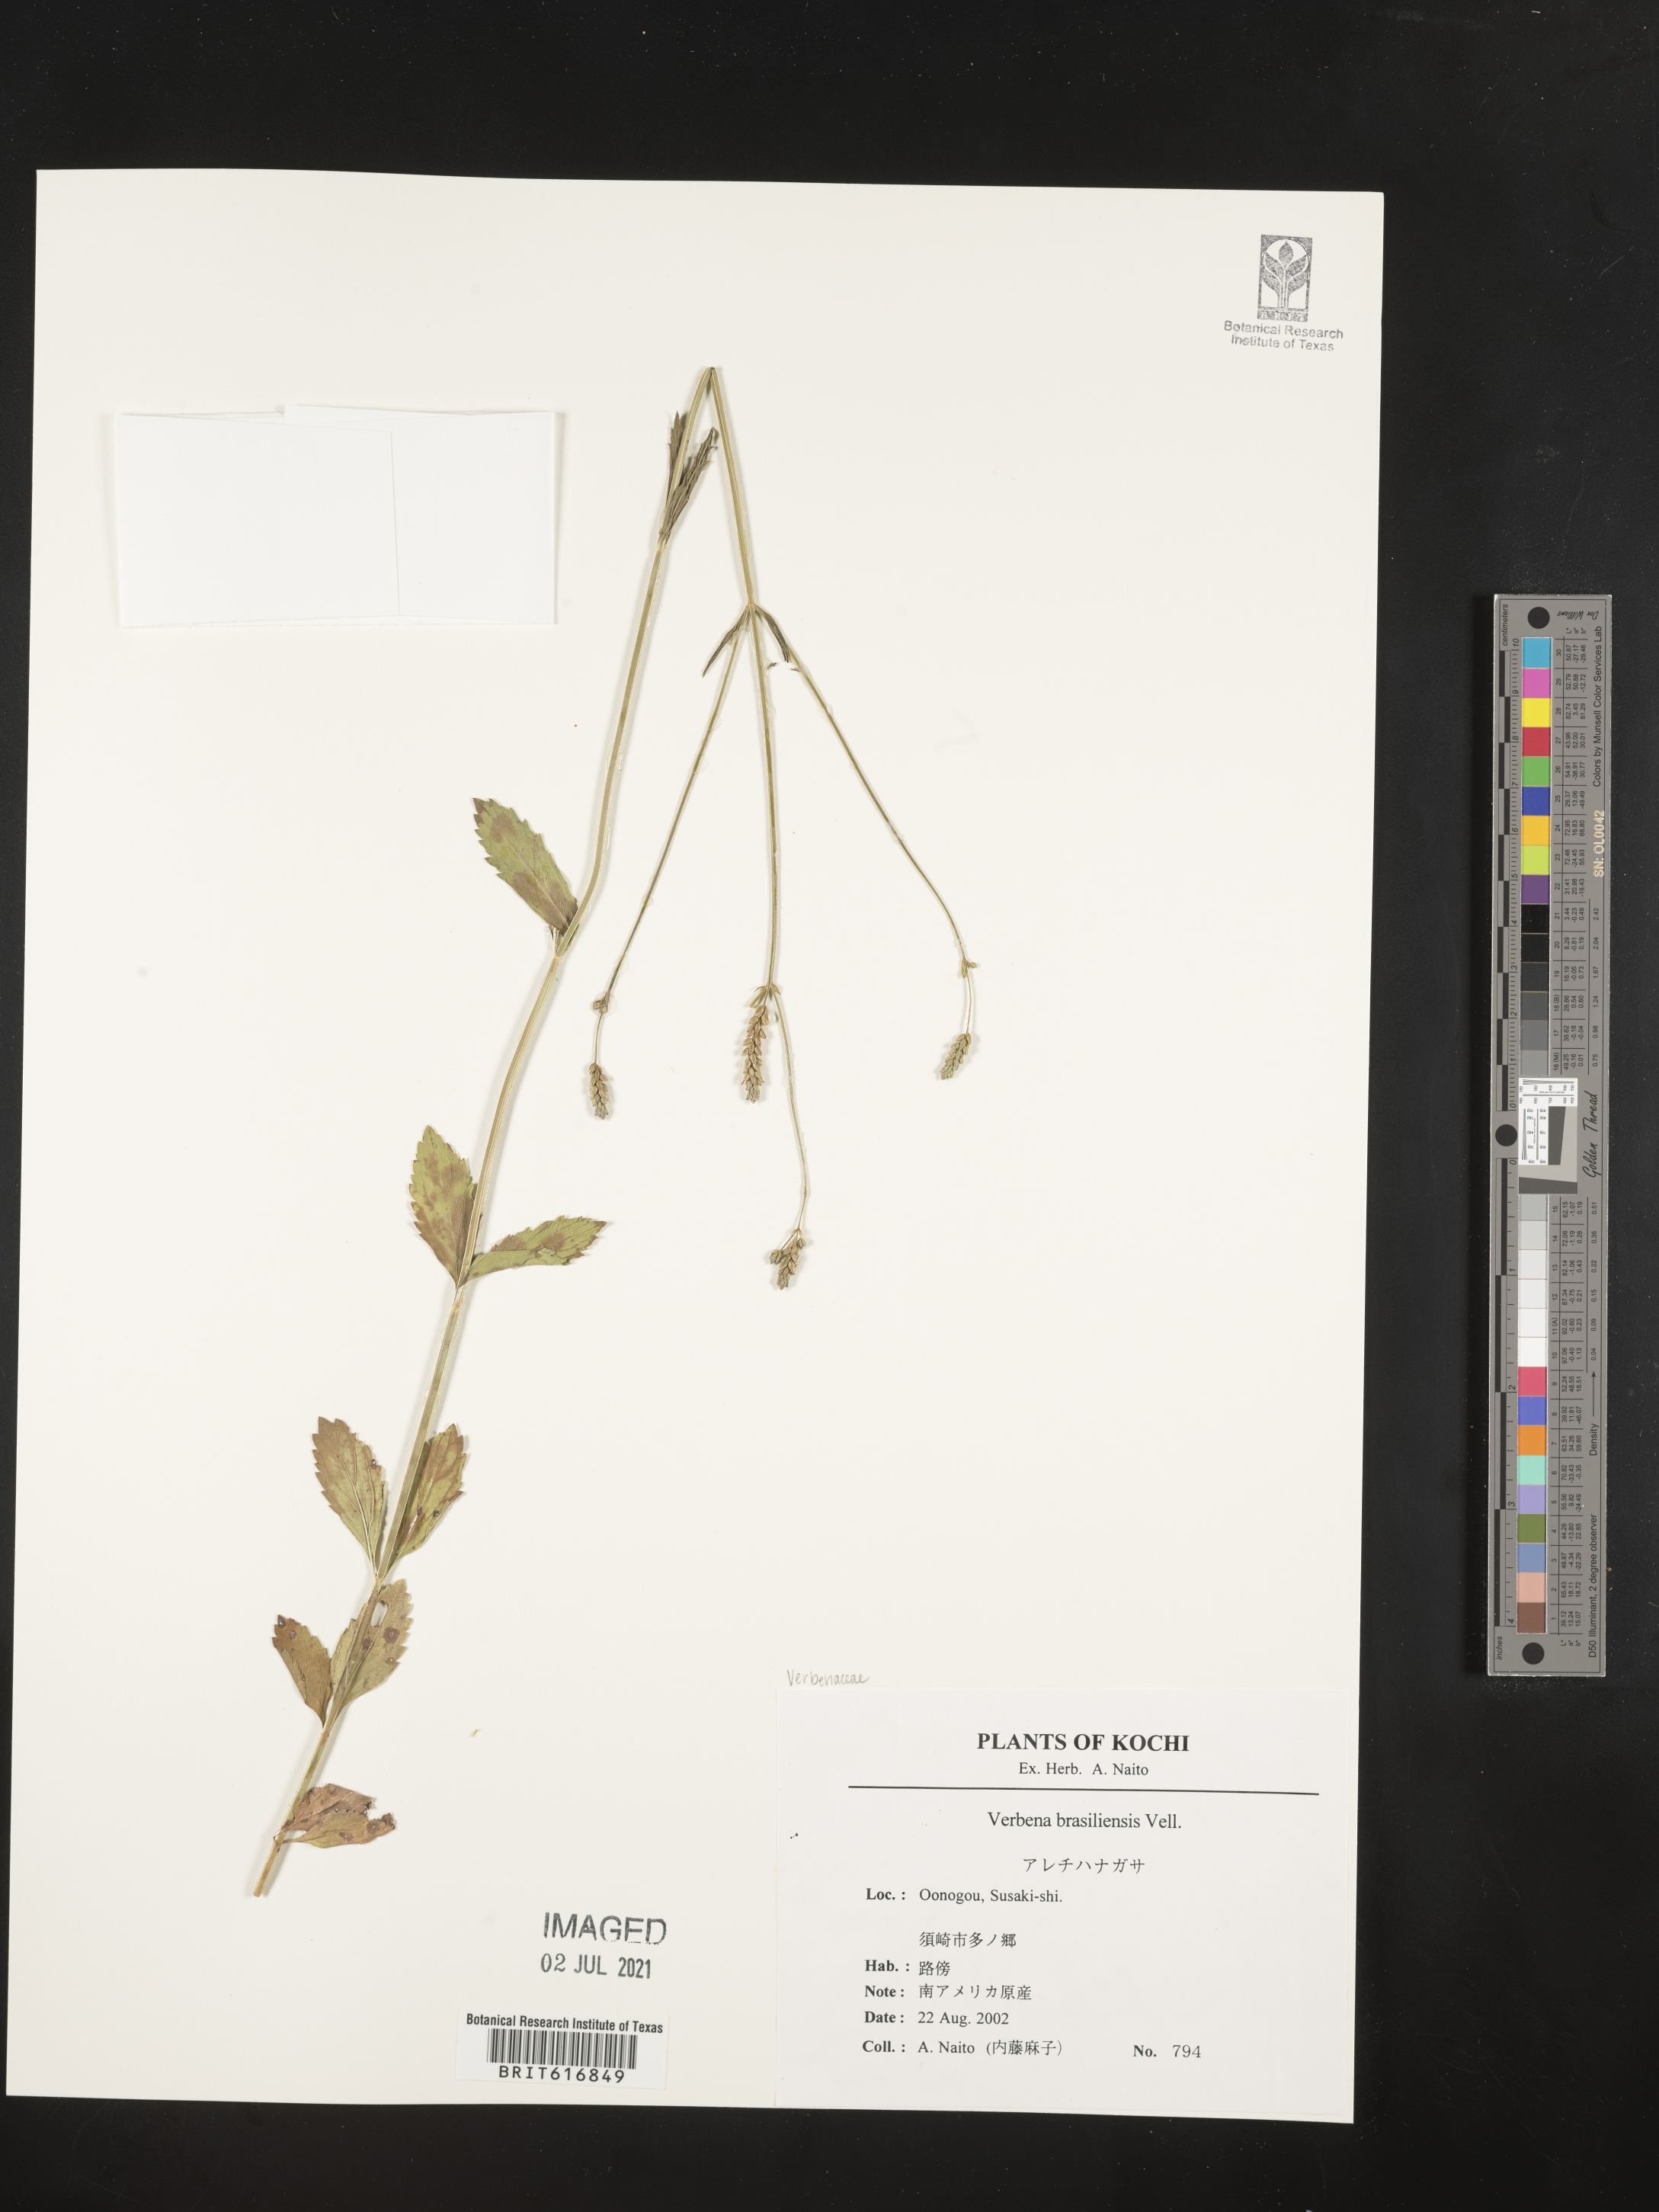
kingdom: Plantae
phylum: Tracheophyta
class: Magnoliopsida
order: Lamiales
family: Verbenaceae
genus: Verbena
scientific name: Verbena brasiliensis
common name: Brazilian vervain
